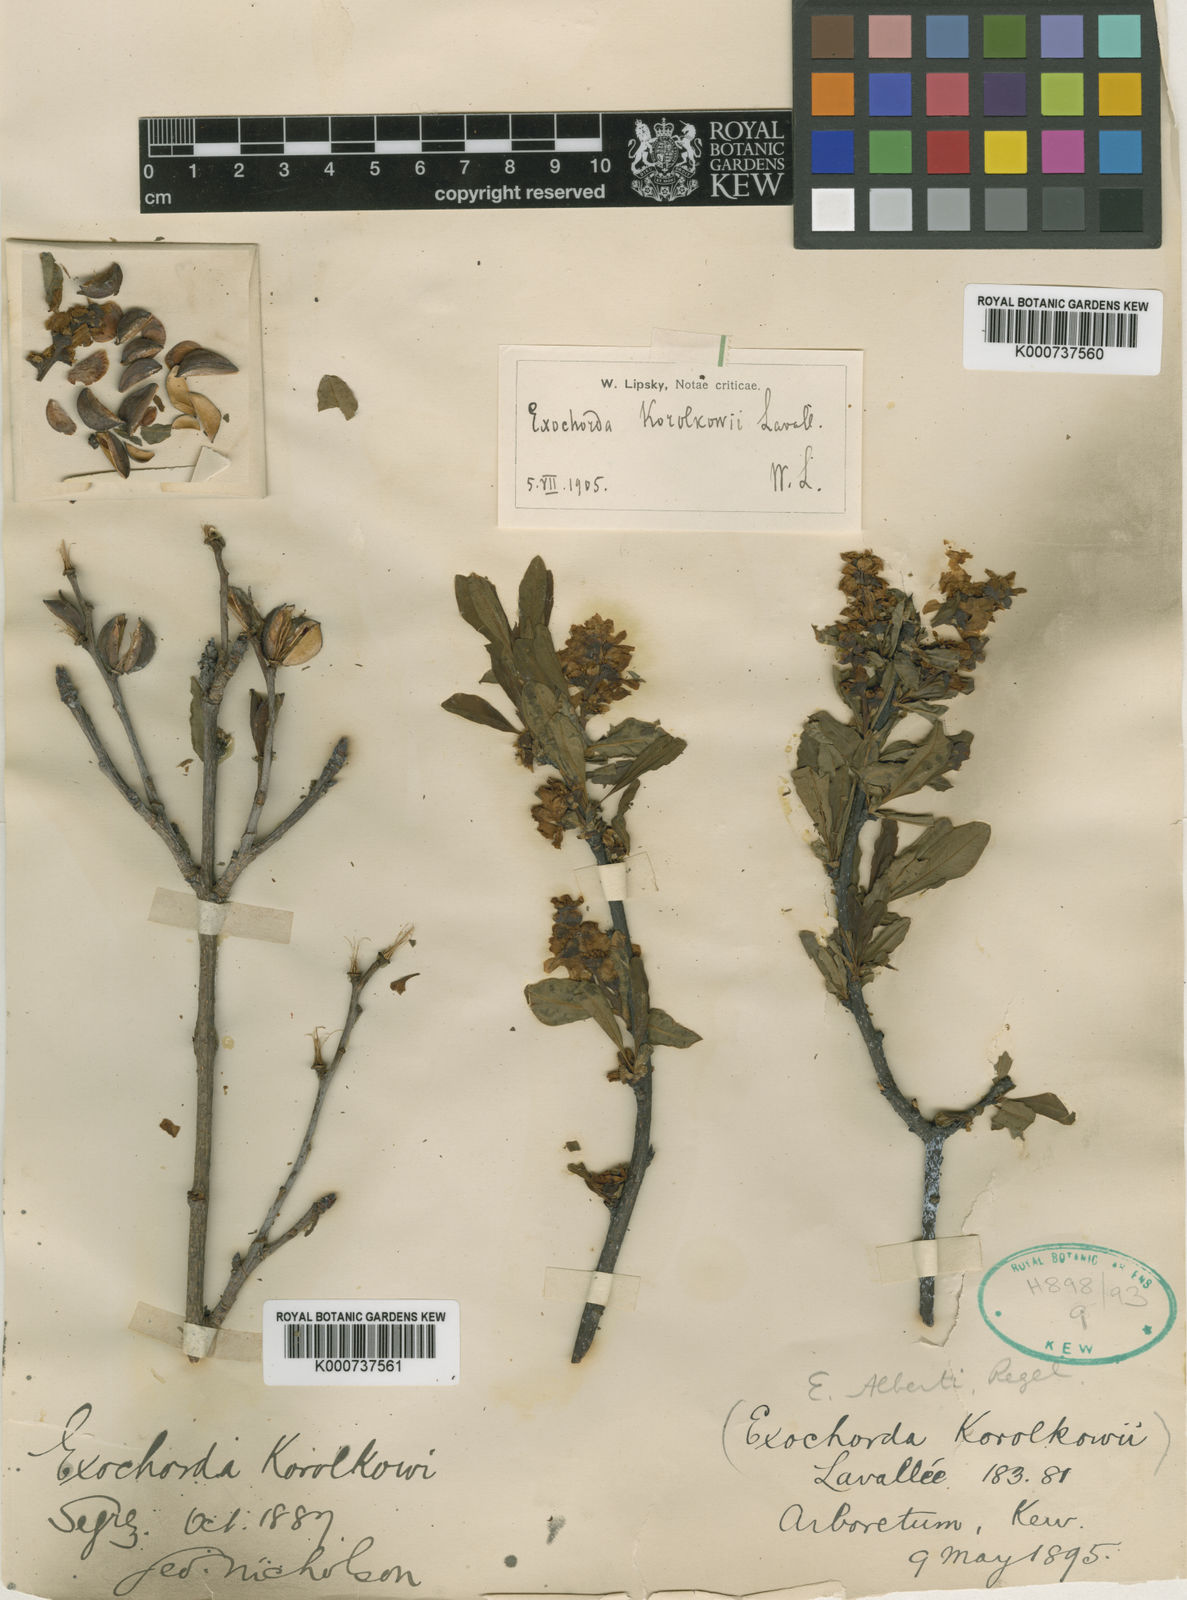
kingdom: Plantae
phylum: Tracheophyta
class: Magnoliopsida
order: Rosales
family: Rosaceae
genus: Exochorda
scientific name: Exochorda racemosa
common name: Common pearlbrush
